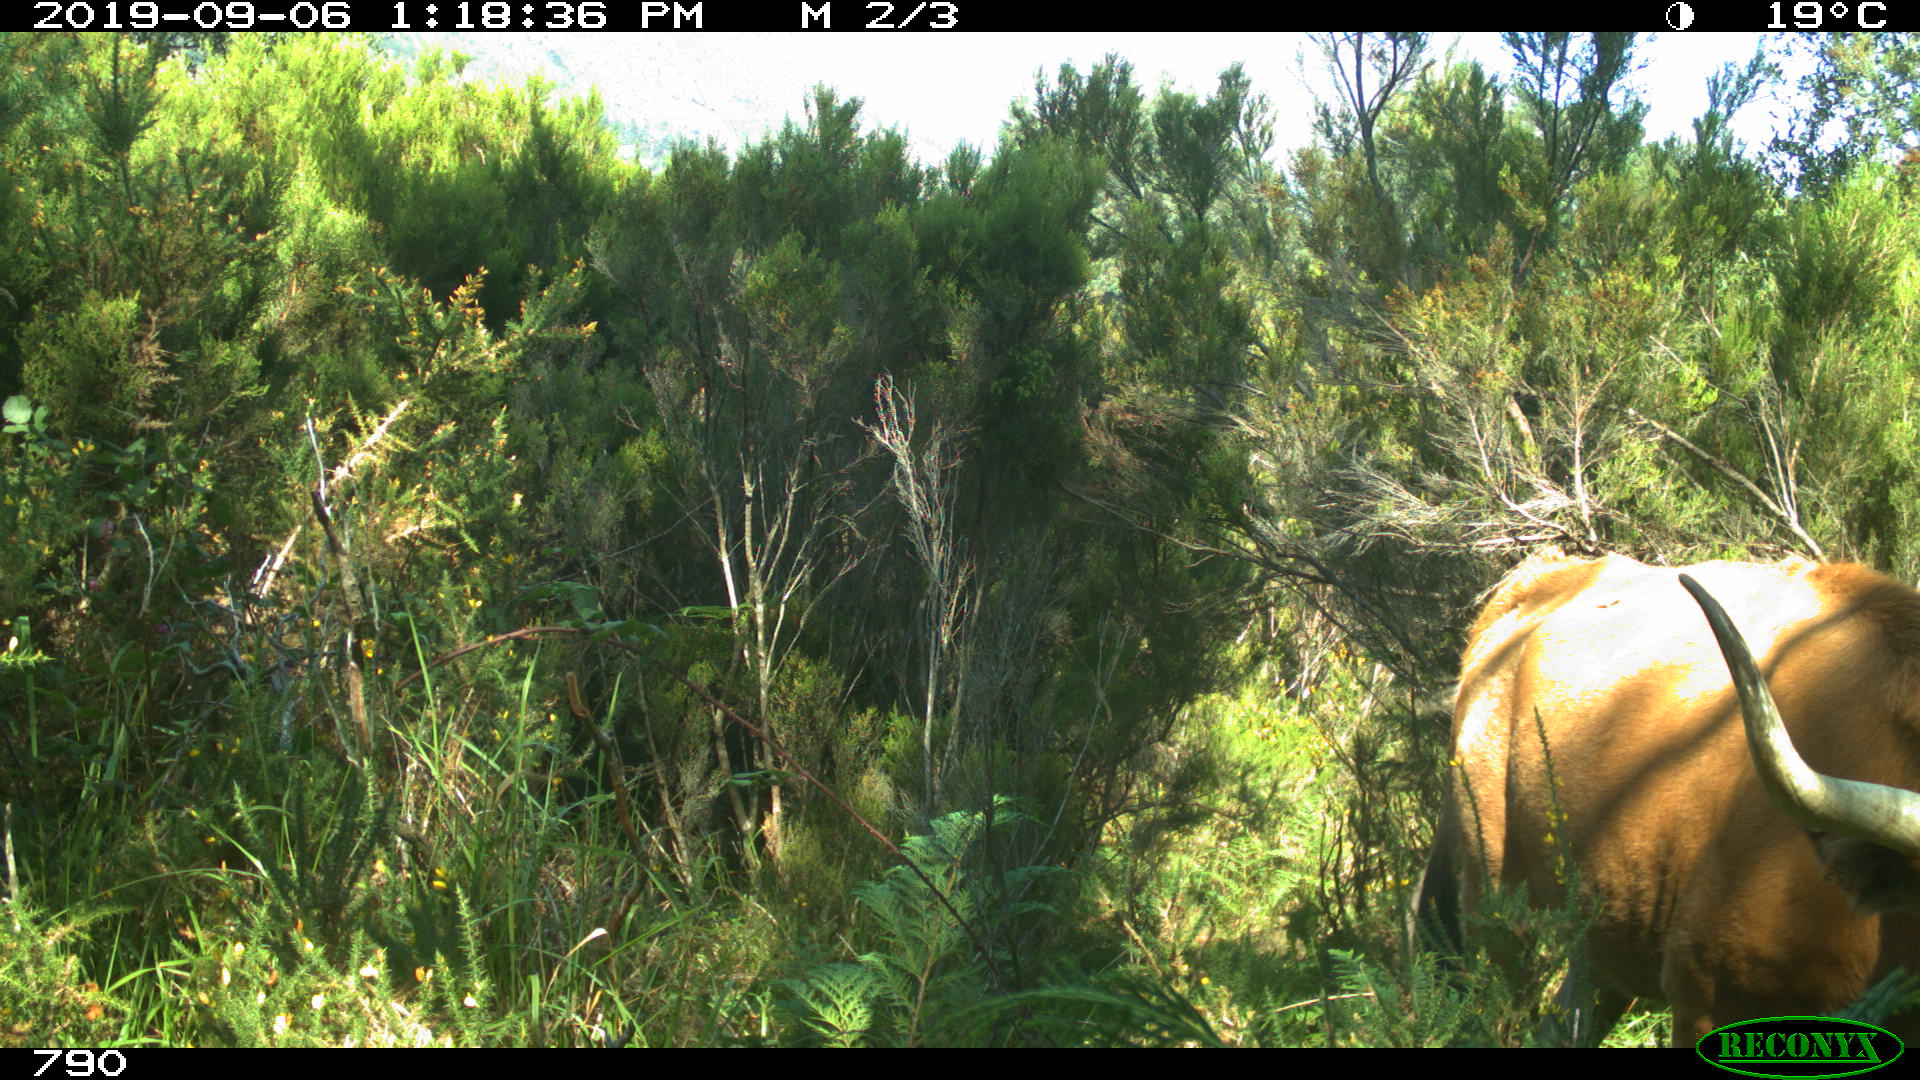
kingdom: Animalia
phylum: Chordata
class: Mammalia
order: Artiodactyla
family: Bovidae
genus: Bos
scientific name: Bos taurus
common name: Domesticated cattle
